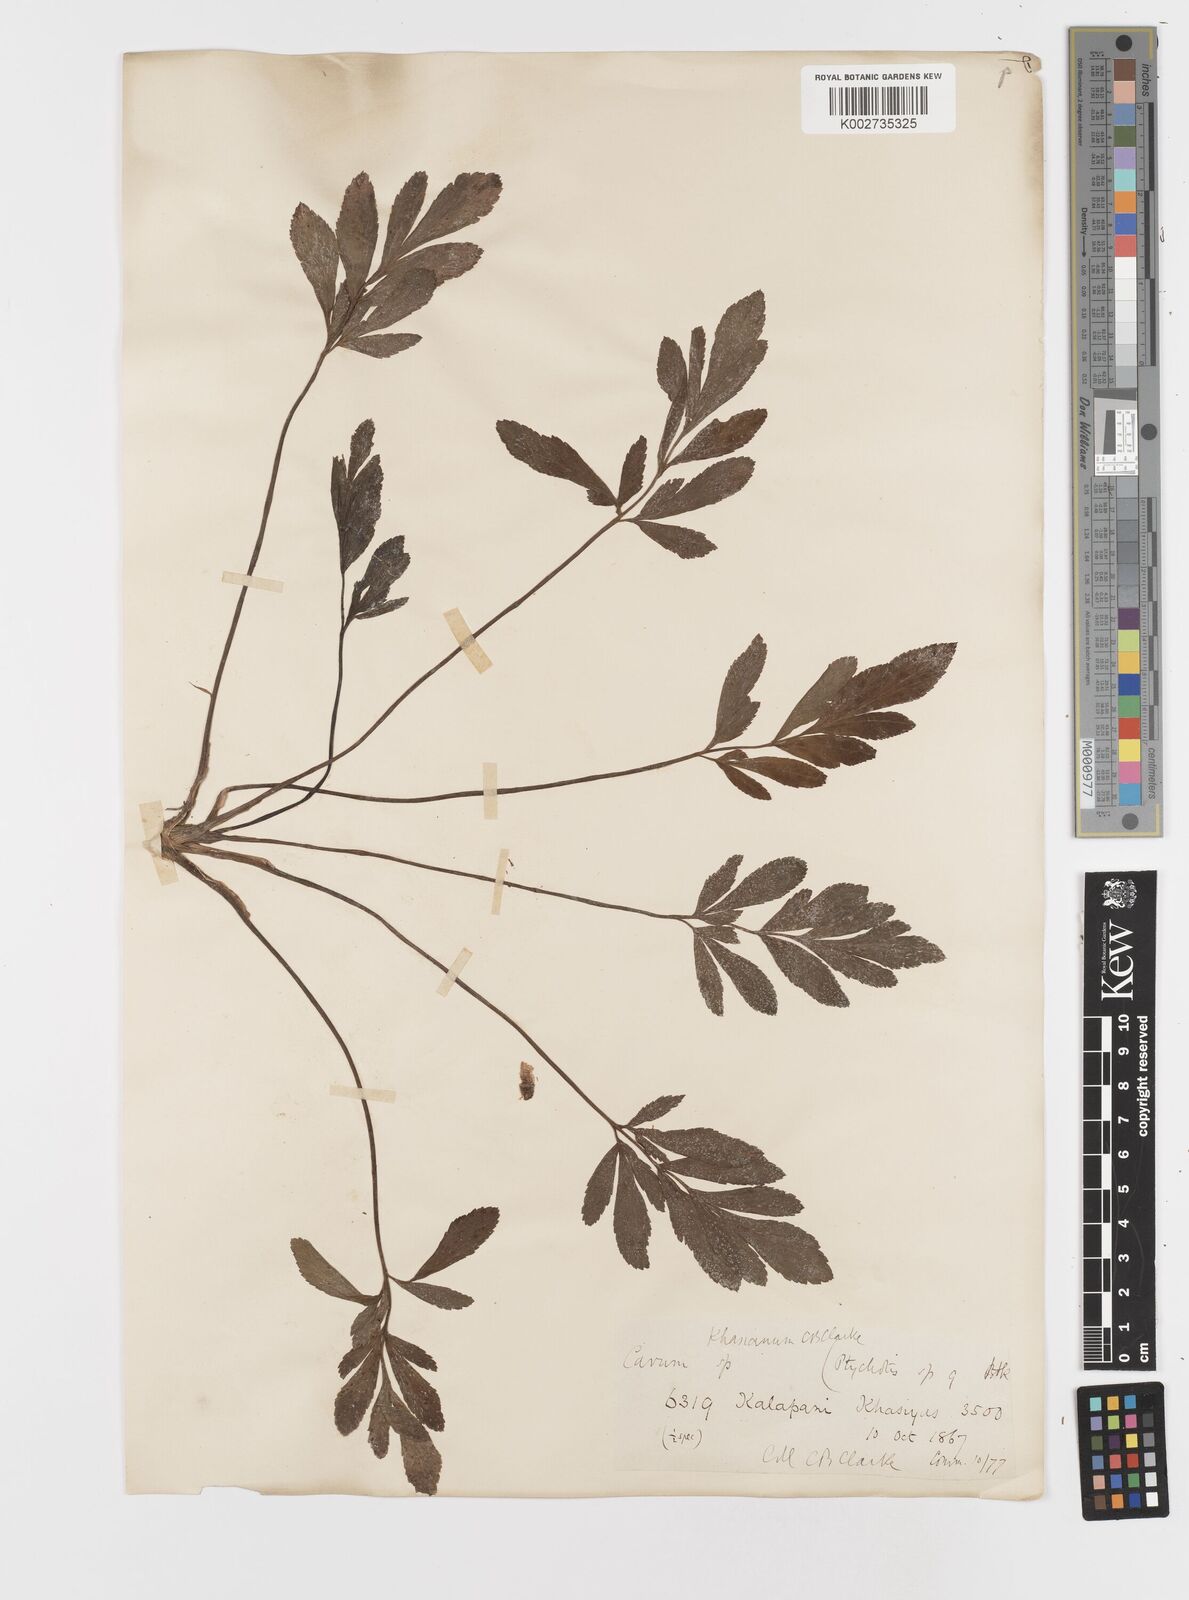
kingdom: Plantae
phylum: Tracheophyta
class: Magnoliopsida
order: Apiales
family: Apiaceae
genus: Trachyspermum
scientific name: Trachyspermum khasianum
